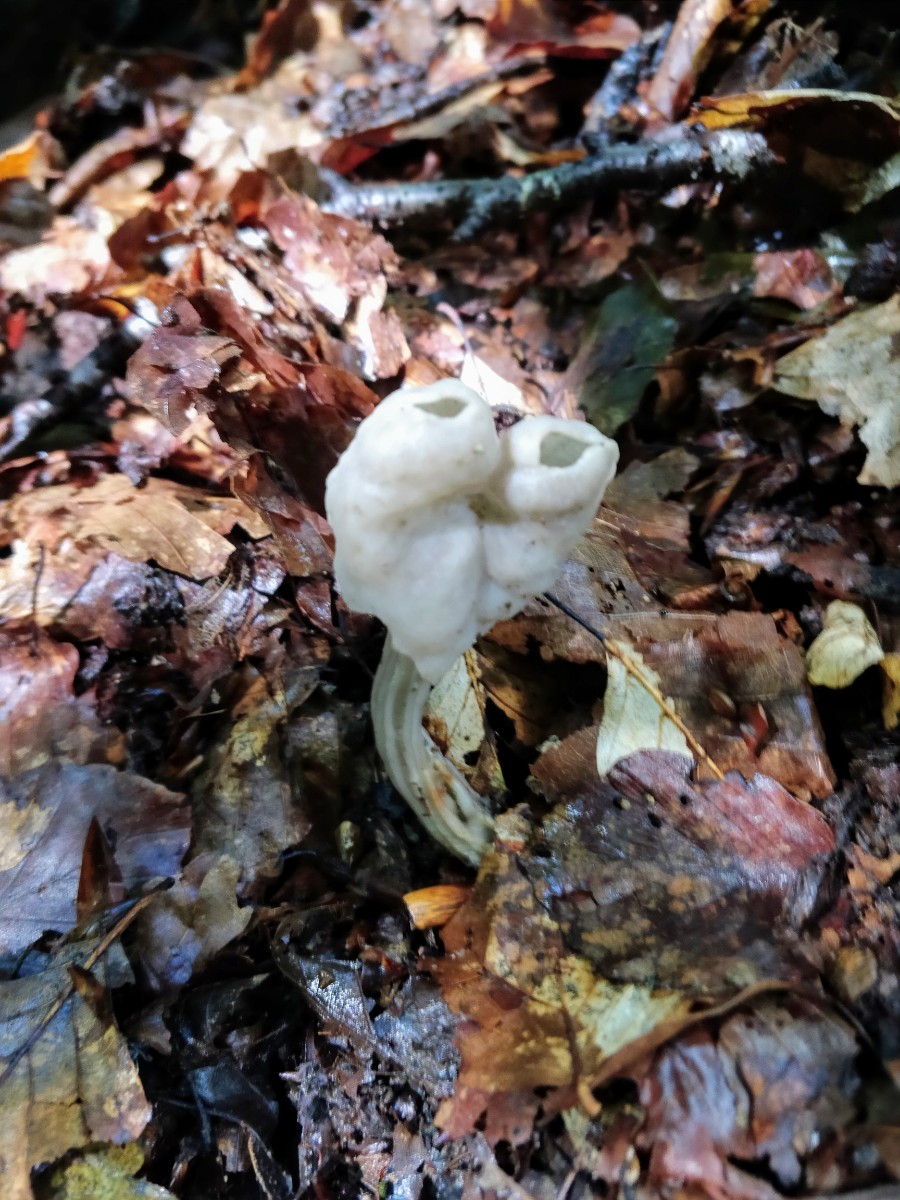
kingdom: Fungi
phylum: Ascomycota
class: Pezizomycetes
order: Pezizales
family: Helvellaceae
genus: Helvella
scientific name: Helvella lacunosa
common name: grubet foldhat
